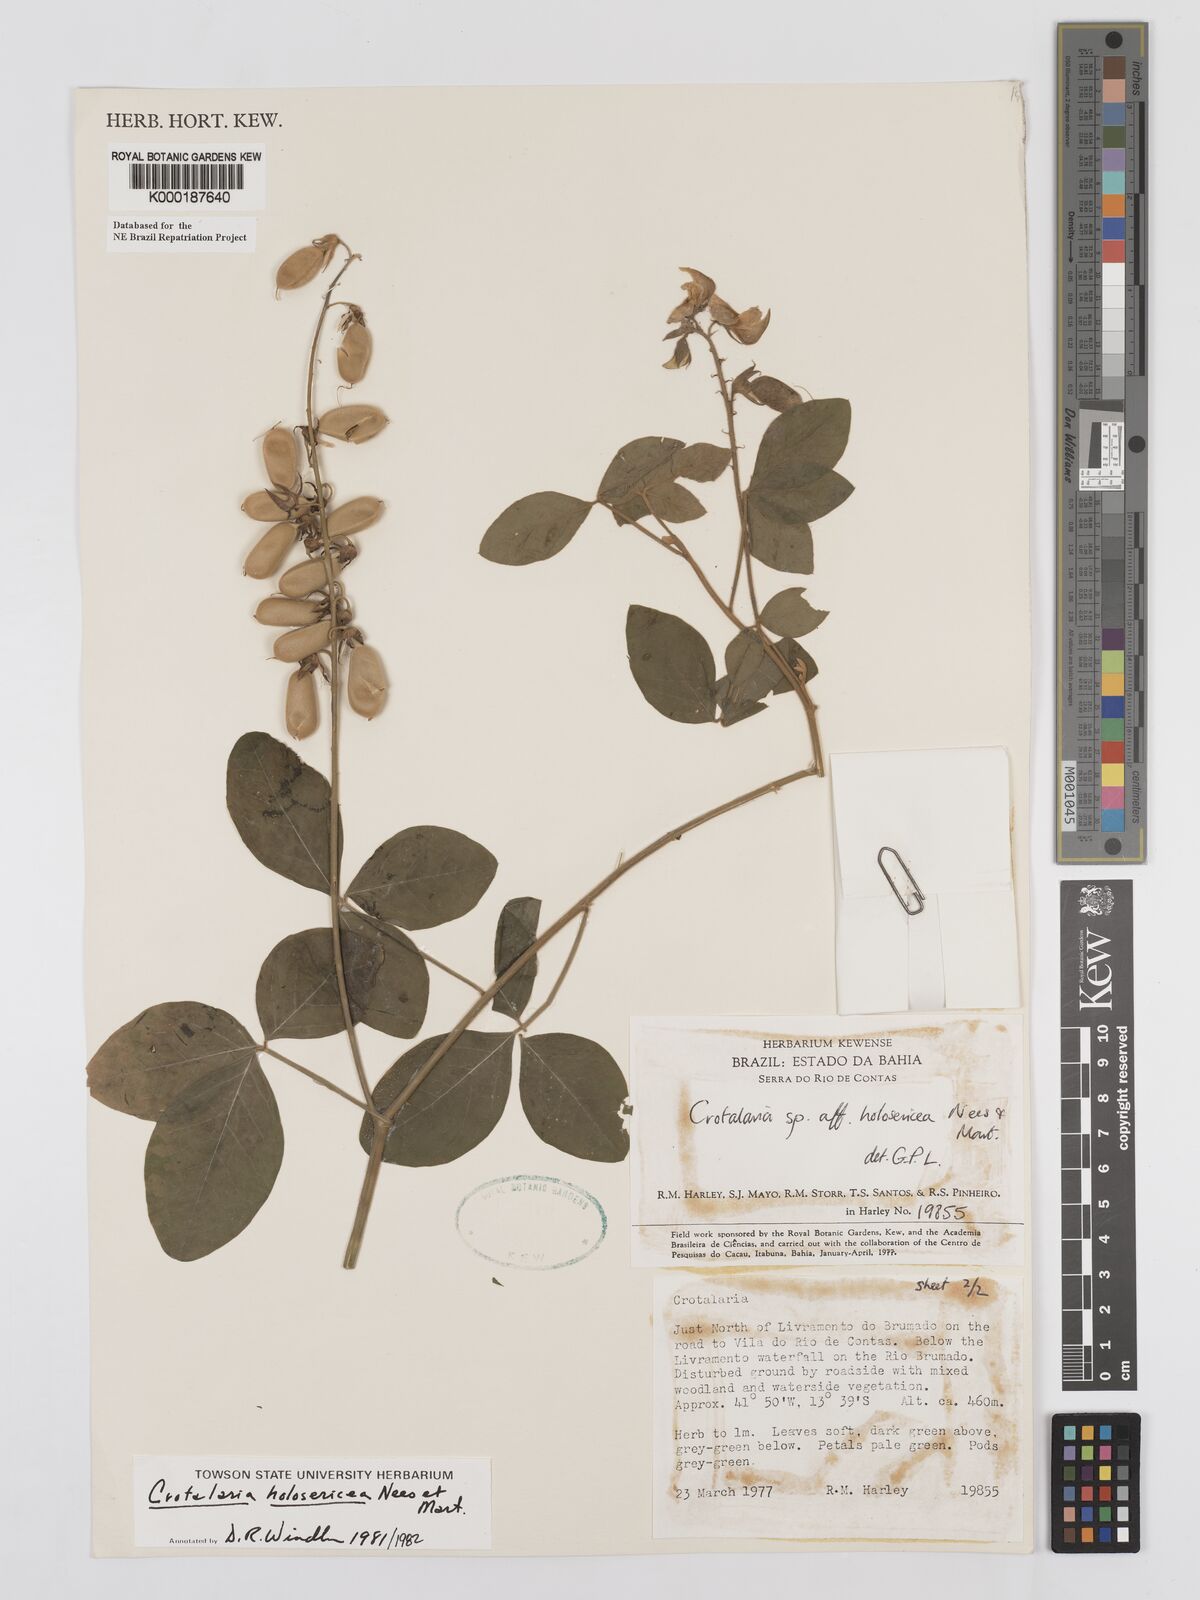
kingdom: Plantae
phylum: Tracheophyta
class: Magnoliopsida
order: Fabales
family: Fabaceae
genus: Crotalaria
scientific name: Crotalaria holosericea
